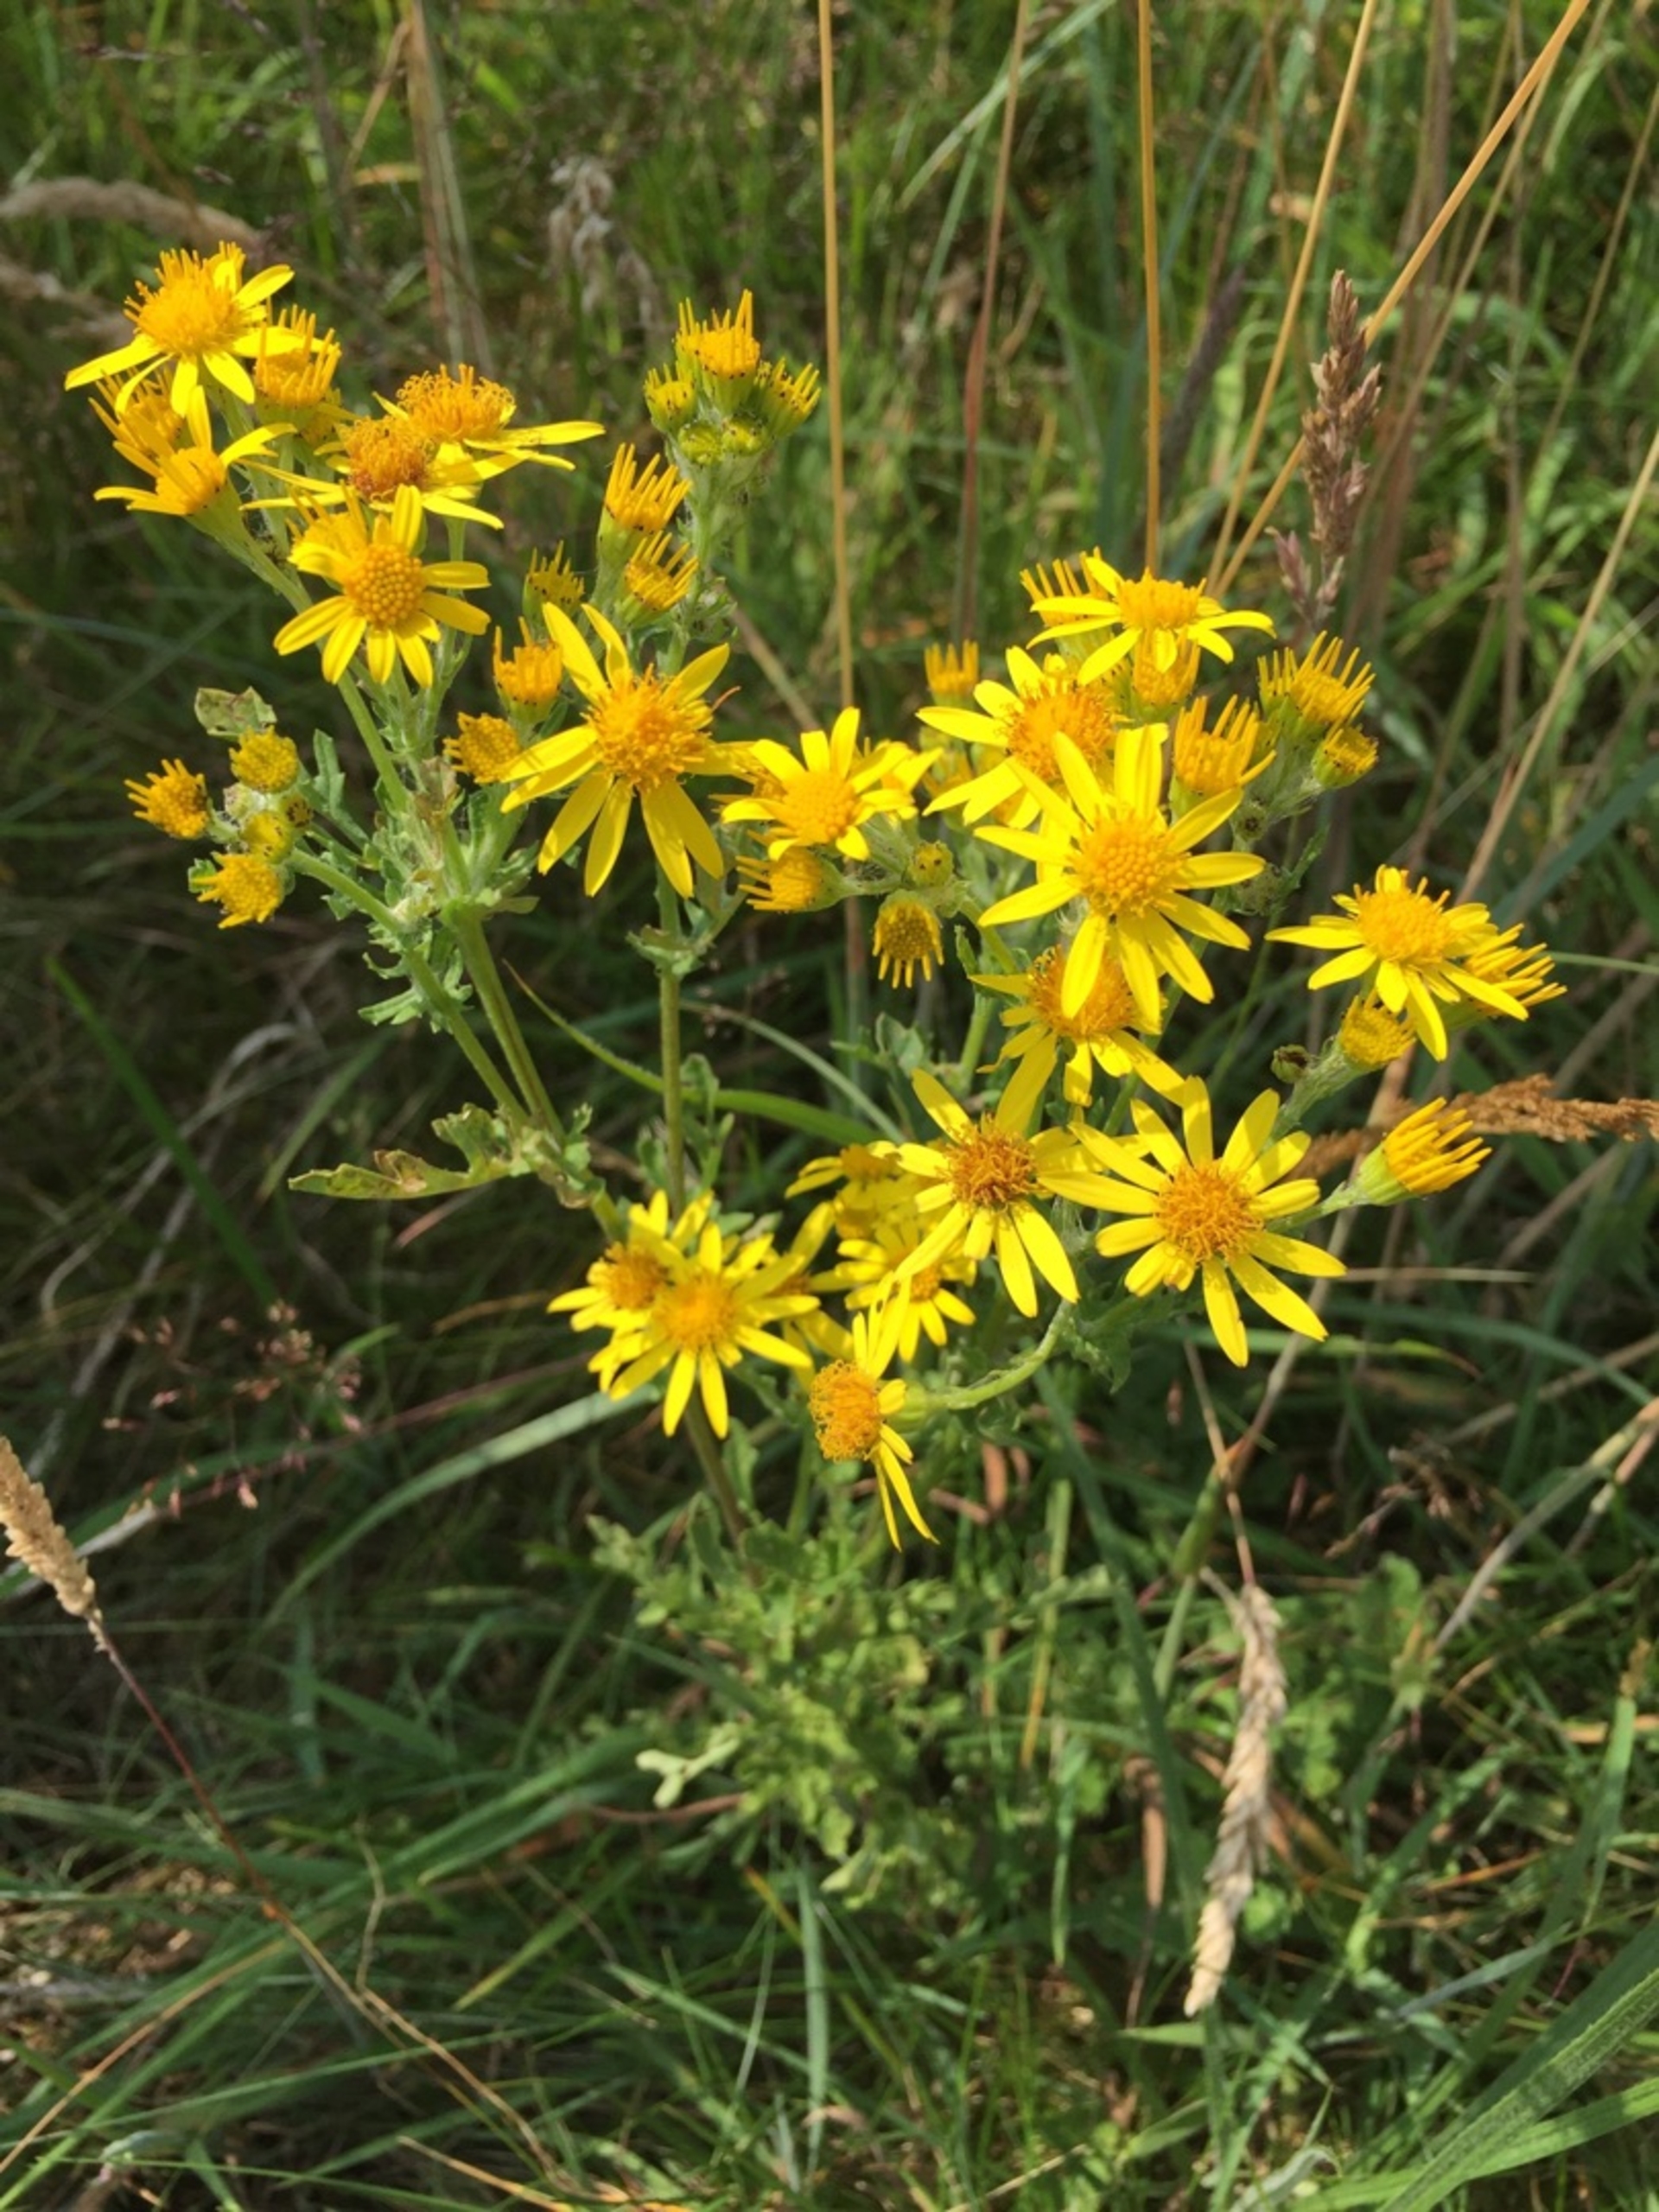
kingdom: Plantae
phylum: Tracheophyta
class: Magnoliopsida
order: Asterales
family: Asteraceae
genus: Jacobaea
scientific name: Jacobaea vulgaris
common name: Eng-brandbæger
